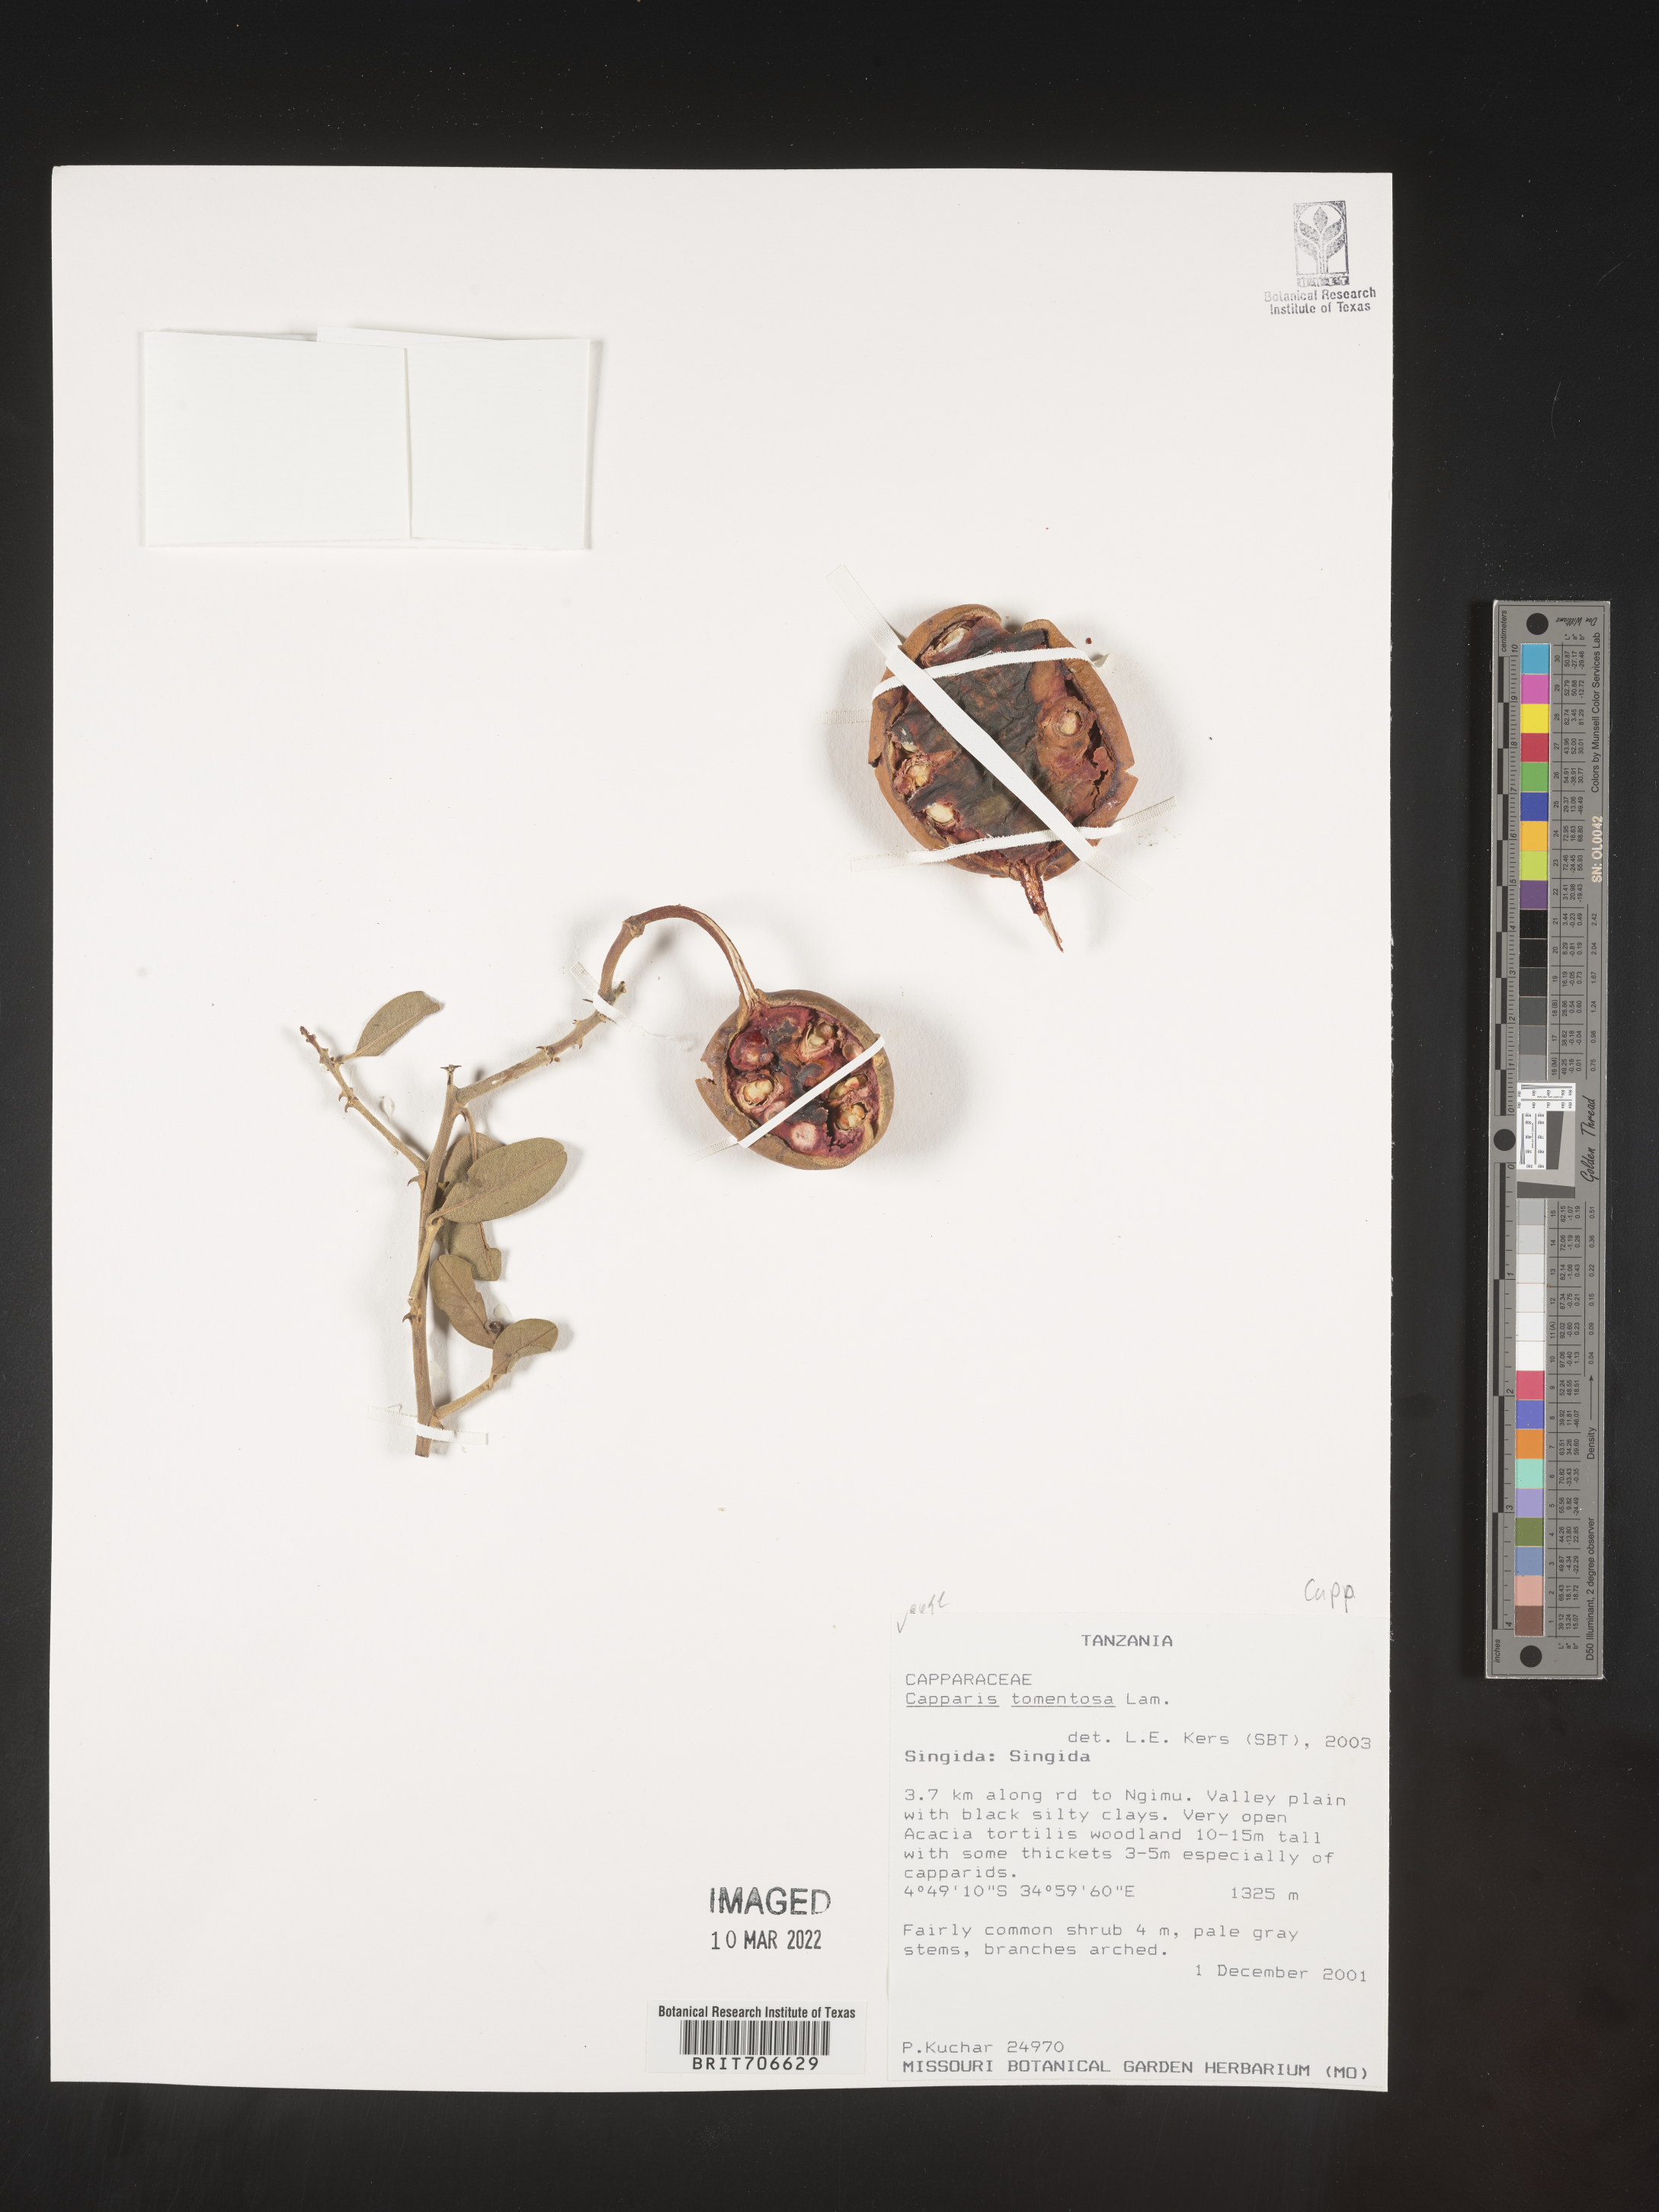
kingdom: Plantae
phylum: Tracheophyta
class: Magnoliopsida
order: Brassicales
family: Capparaceae
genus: Capparis
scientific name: Capparis
